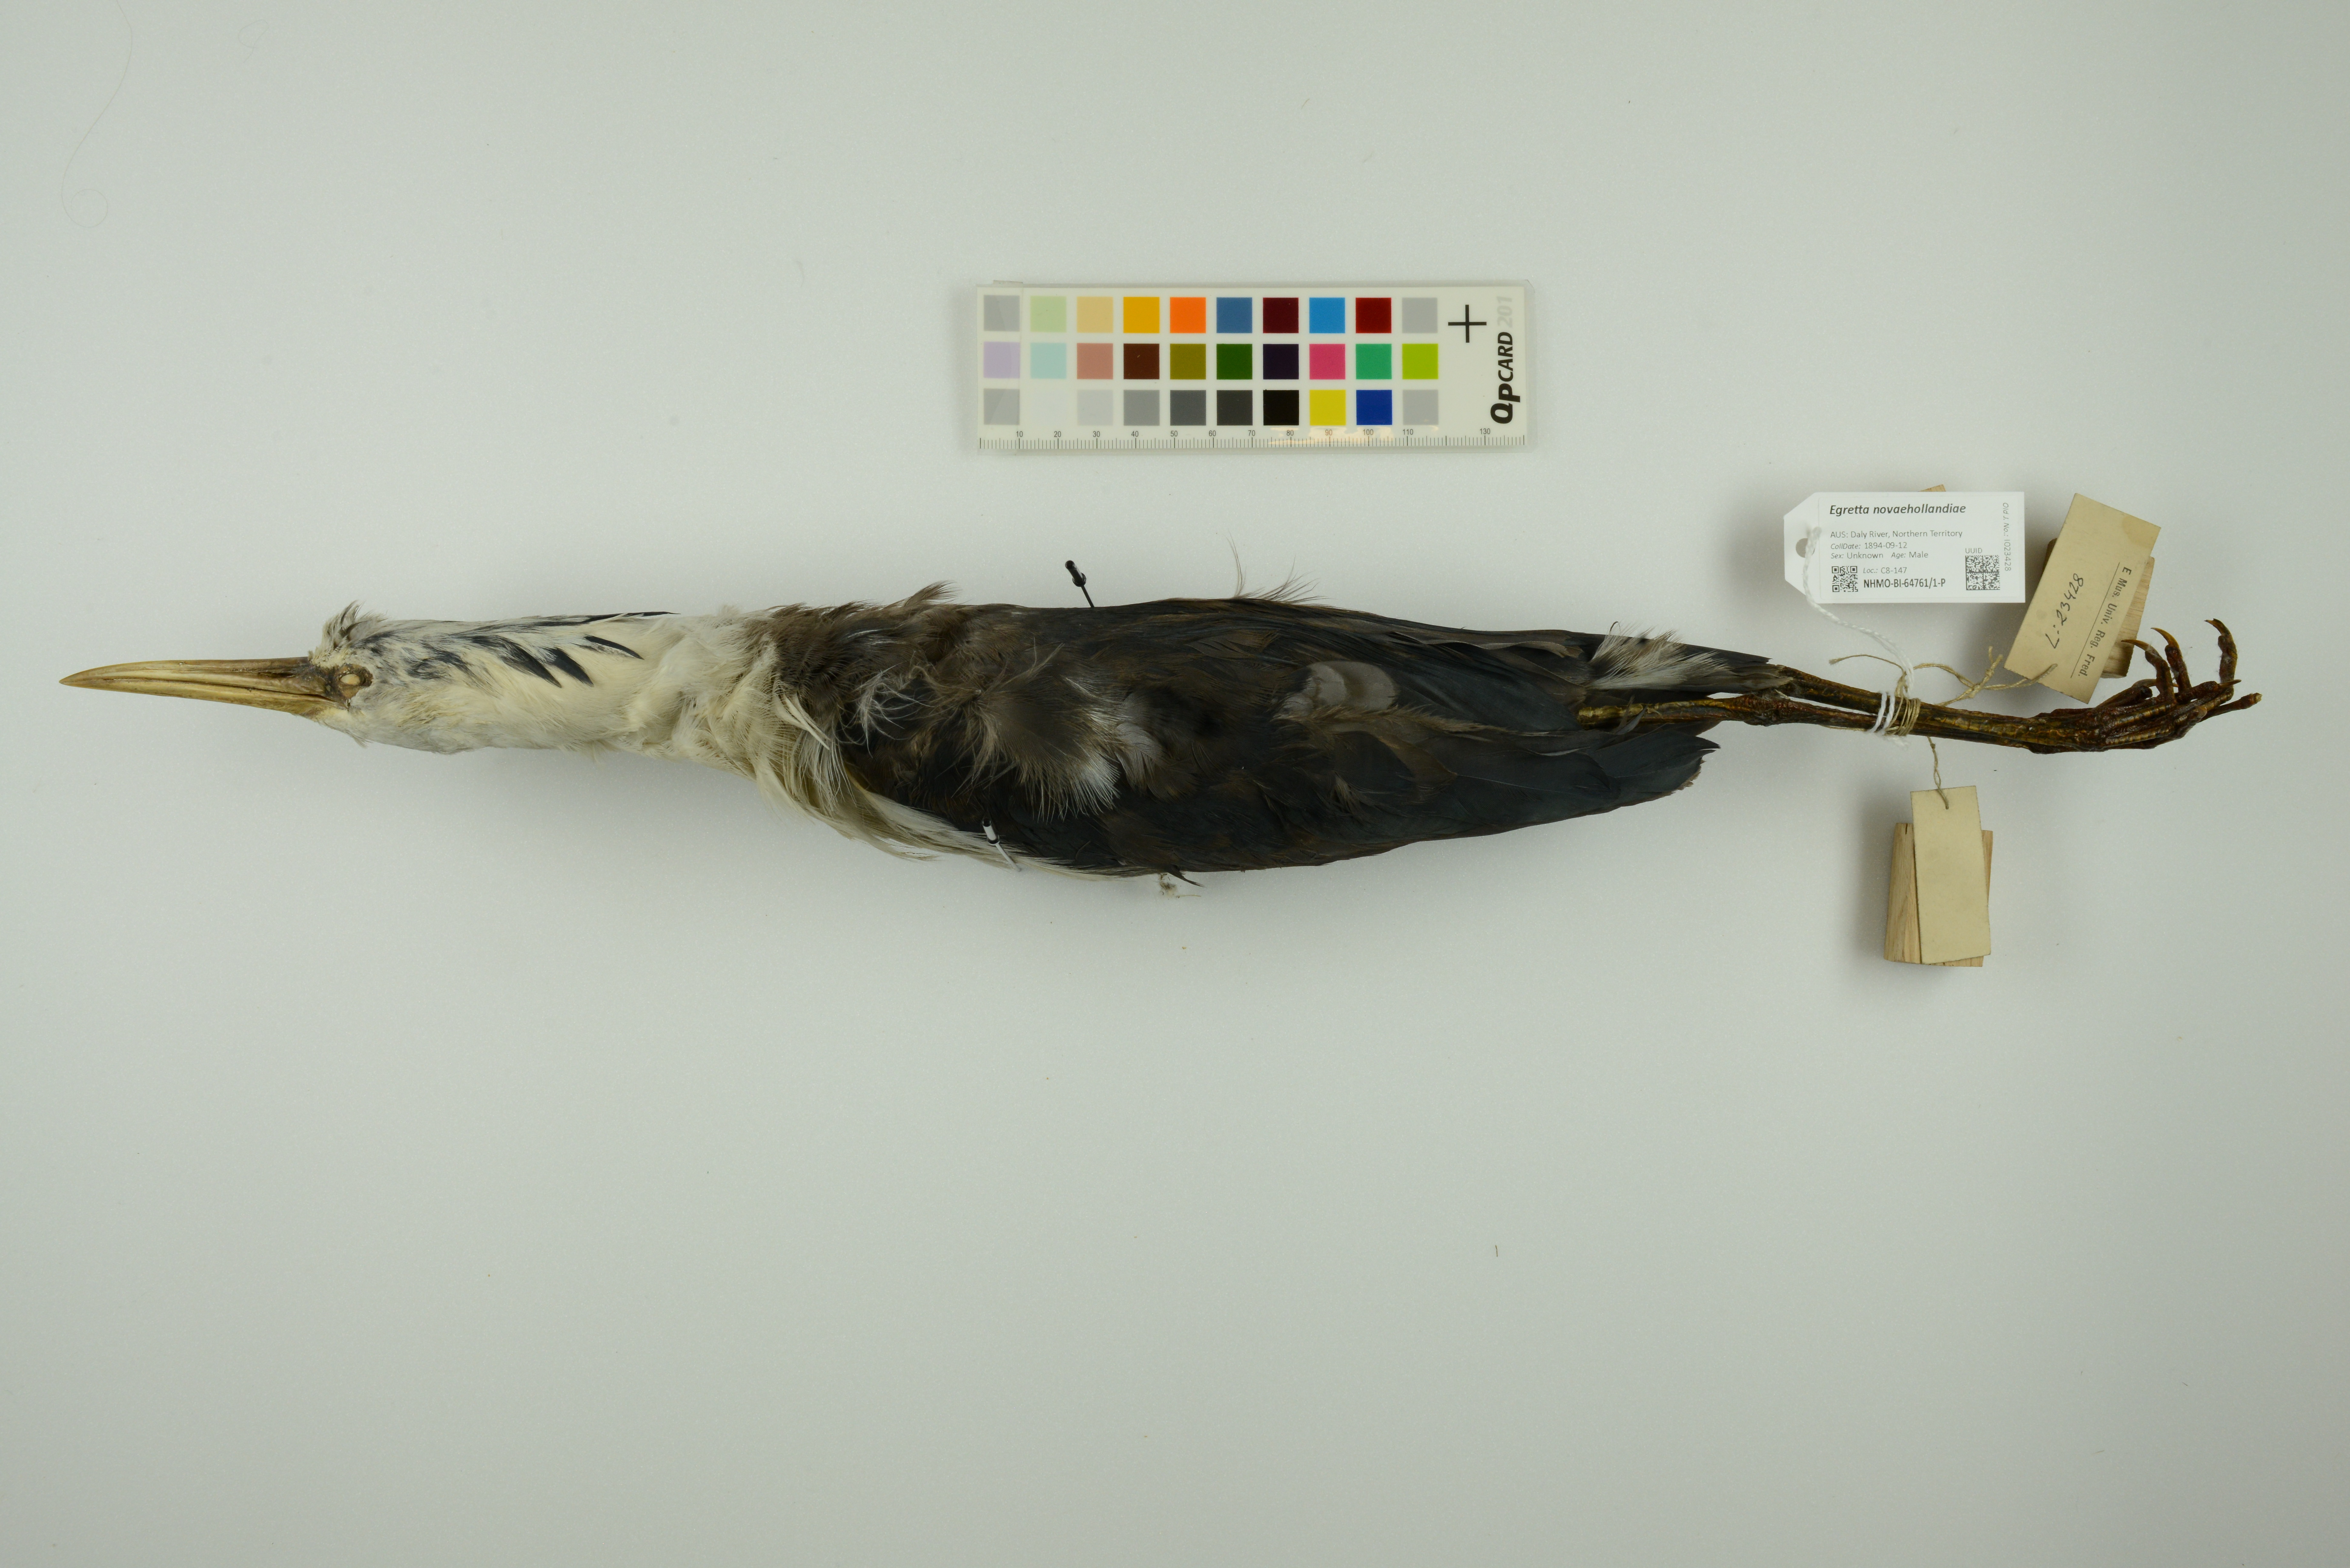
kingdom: Animalia
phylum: Chordata
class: Aves
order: Pelecaniformes
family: Ardeidae
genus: Egretta
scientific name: Egretta novaehollandiae
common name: White-faced heron
